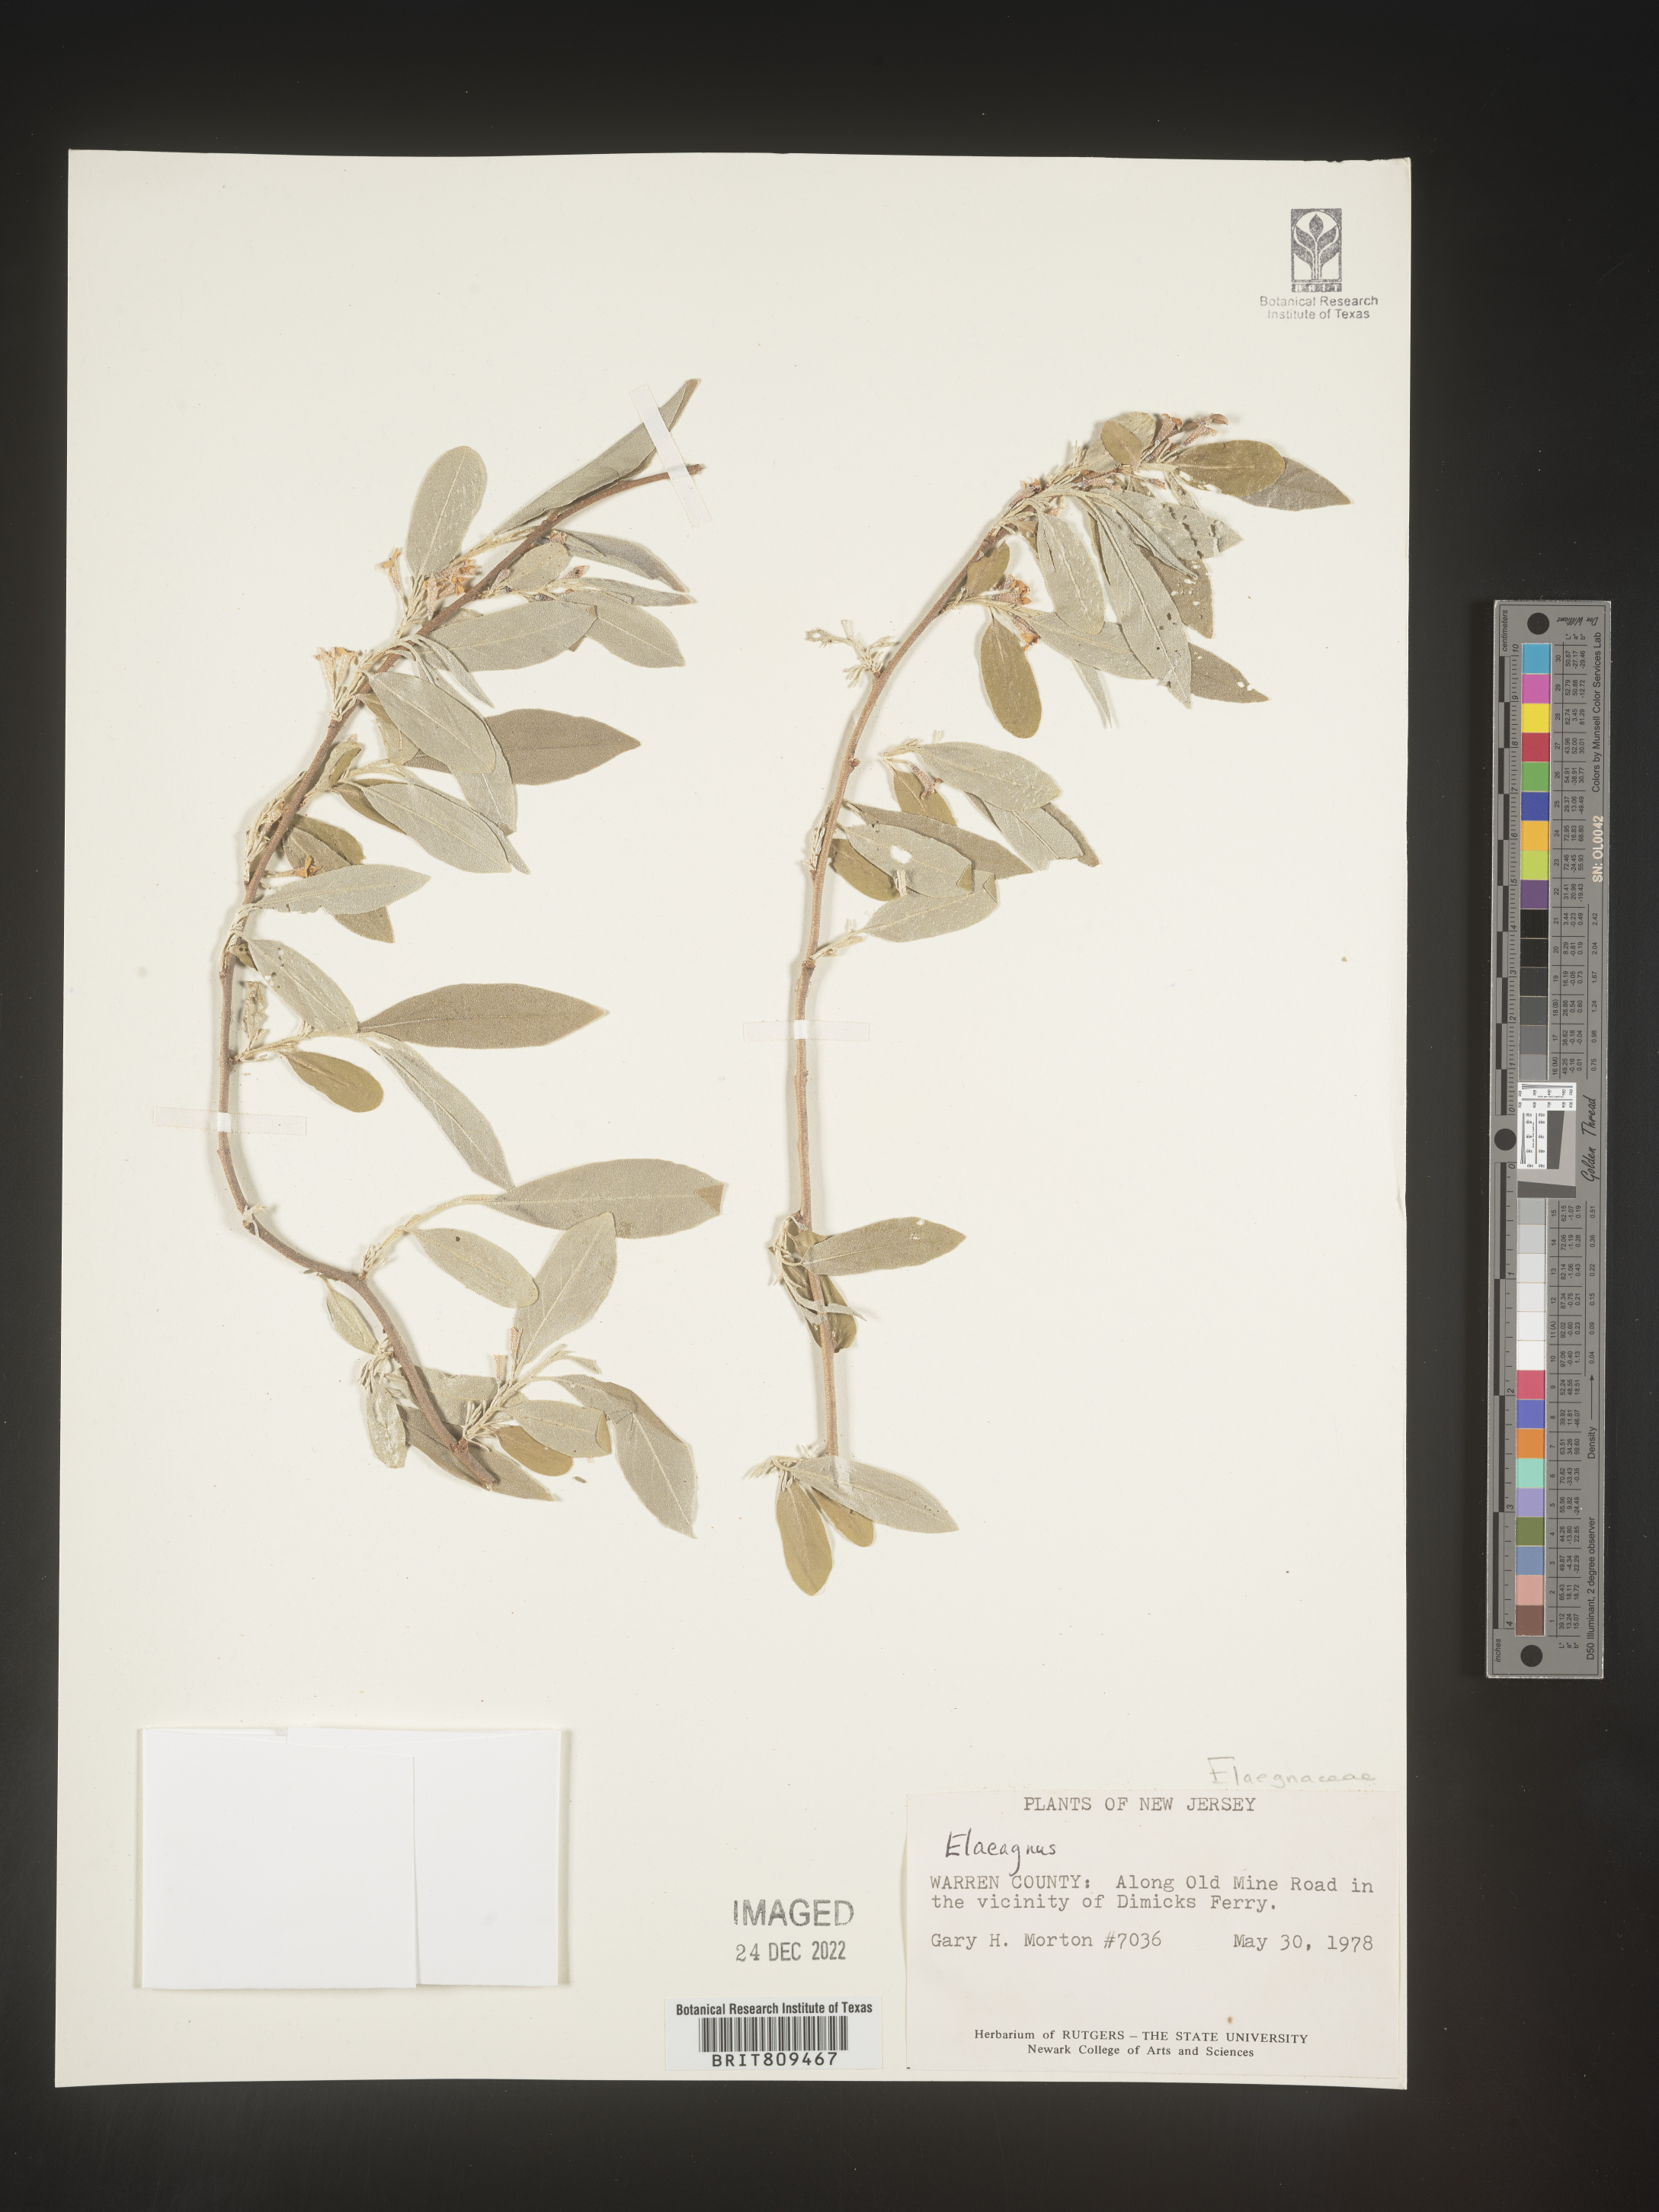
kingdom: Plantae
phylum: Tracheophyta
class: Magnoliopsida
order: Rosales
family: Elaeagnaceae
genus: Elaeagnus
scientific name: Elaeagnus
